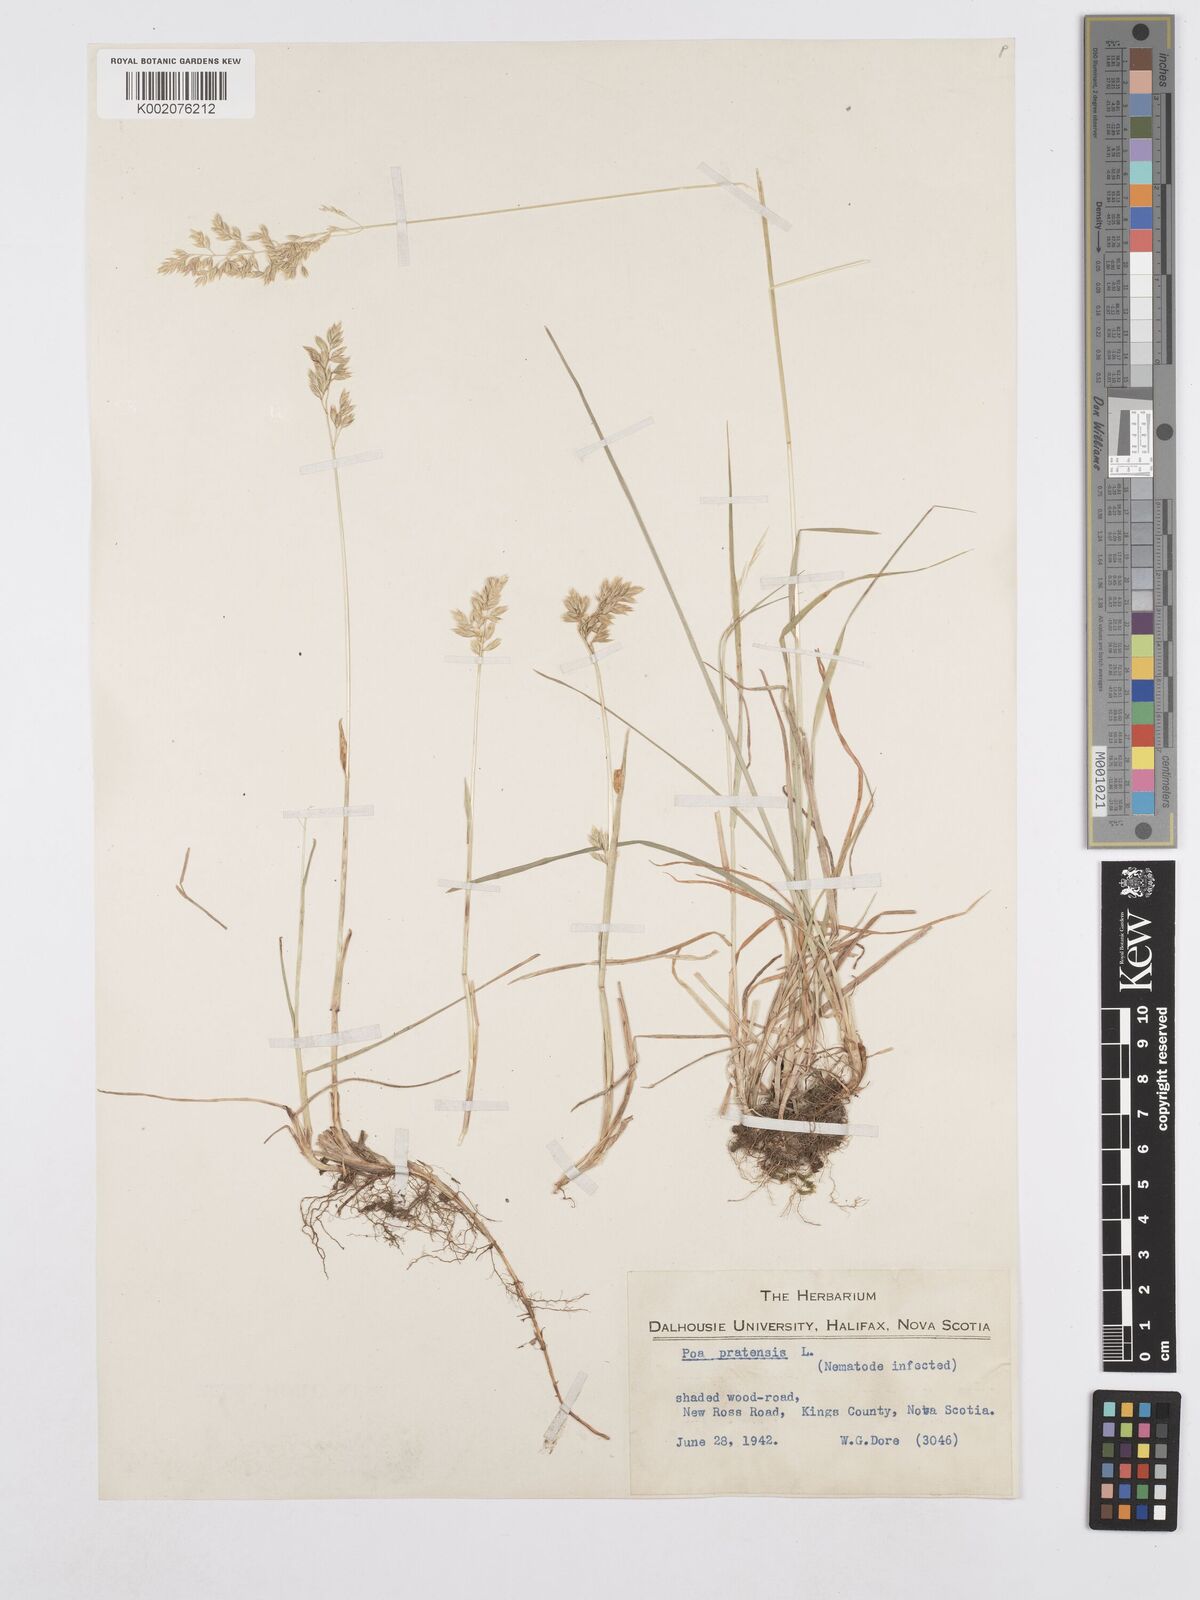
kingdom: Plantae
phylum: Tracheophyta
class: Liliopsida
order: Poales
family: Poaceae
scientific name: Poaceae
